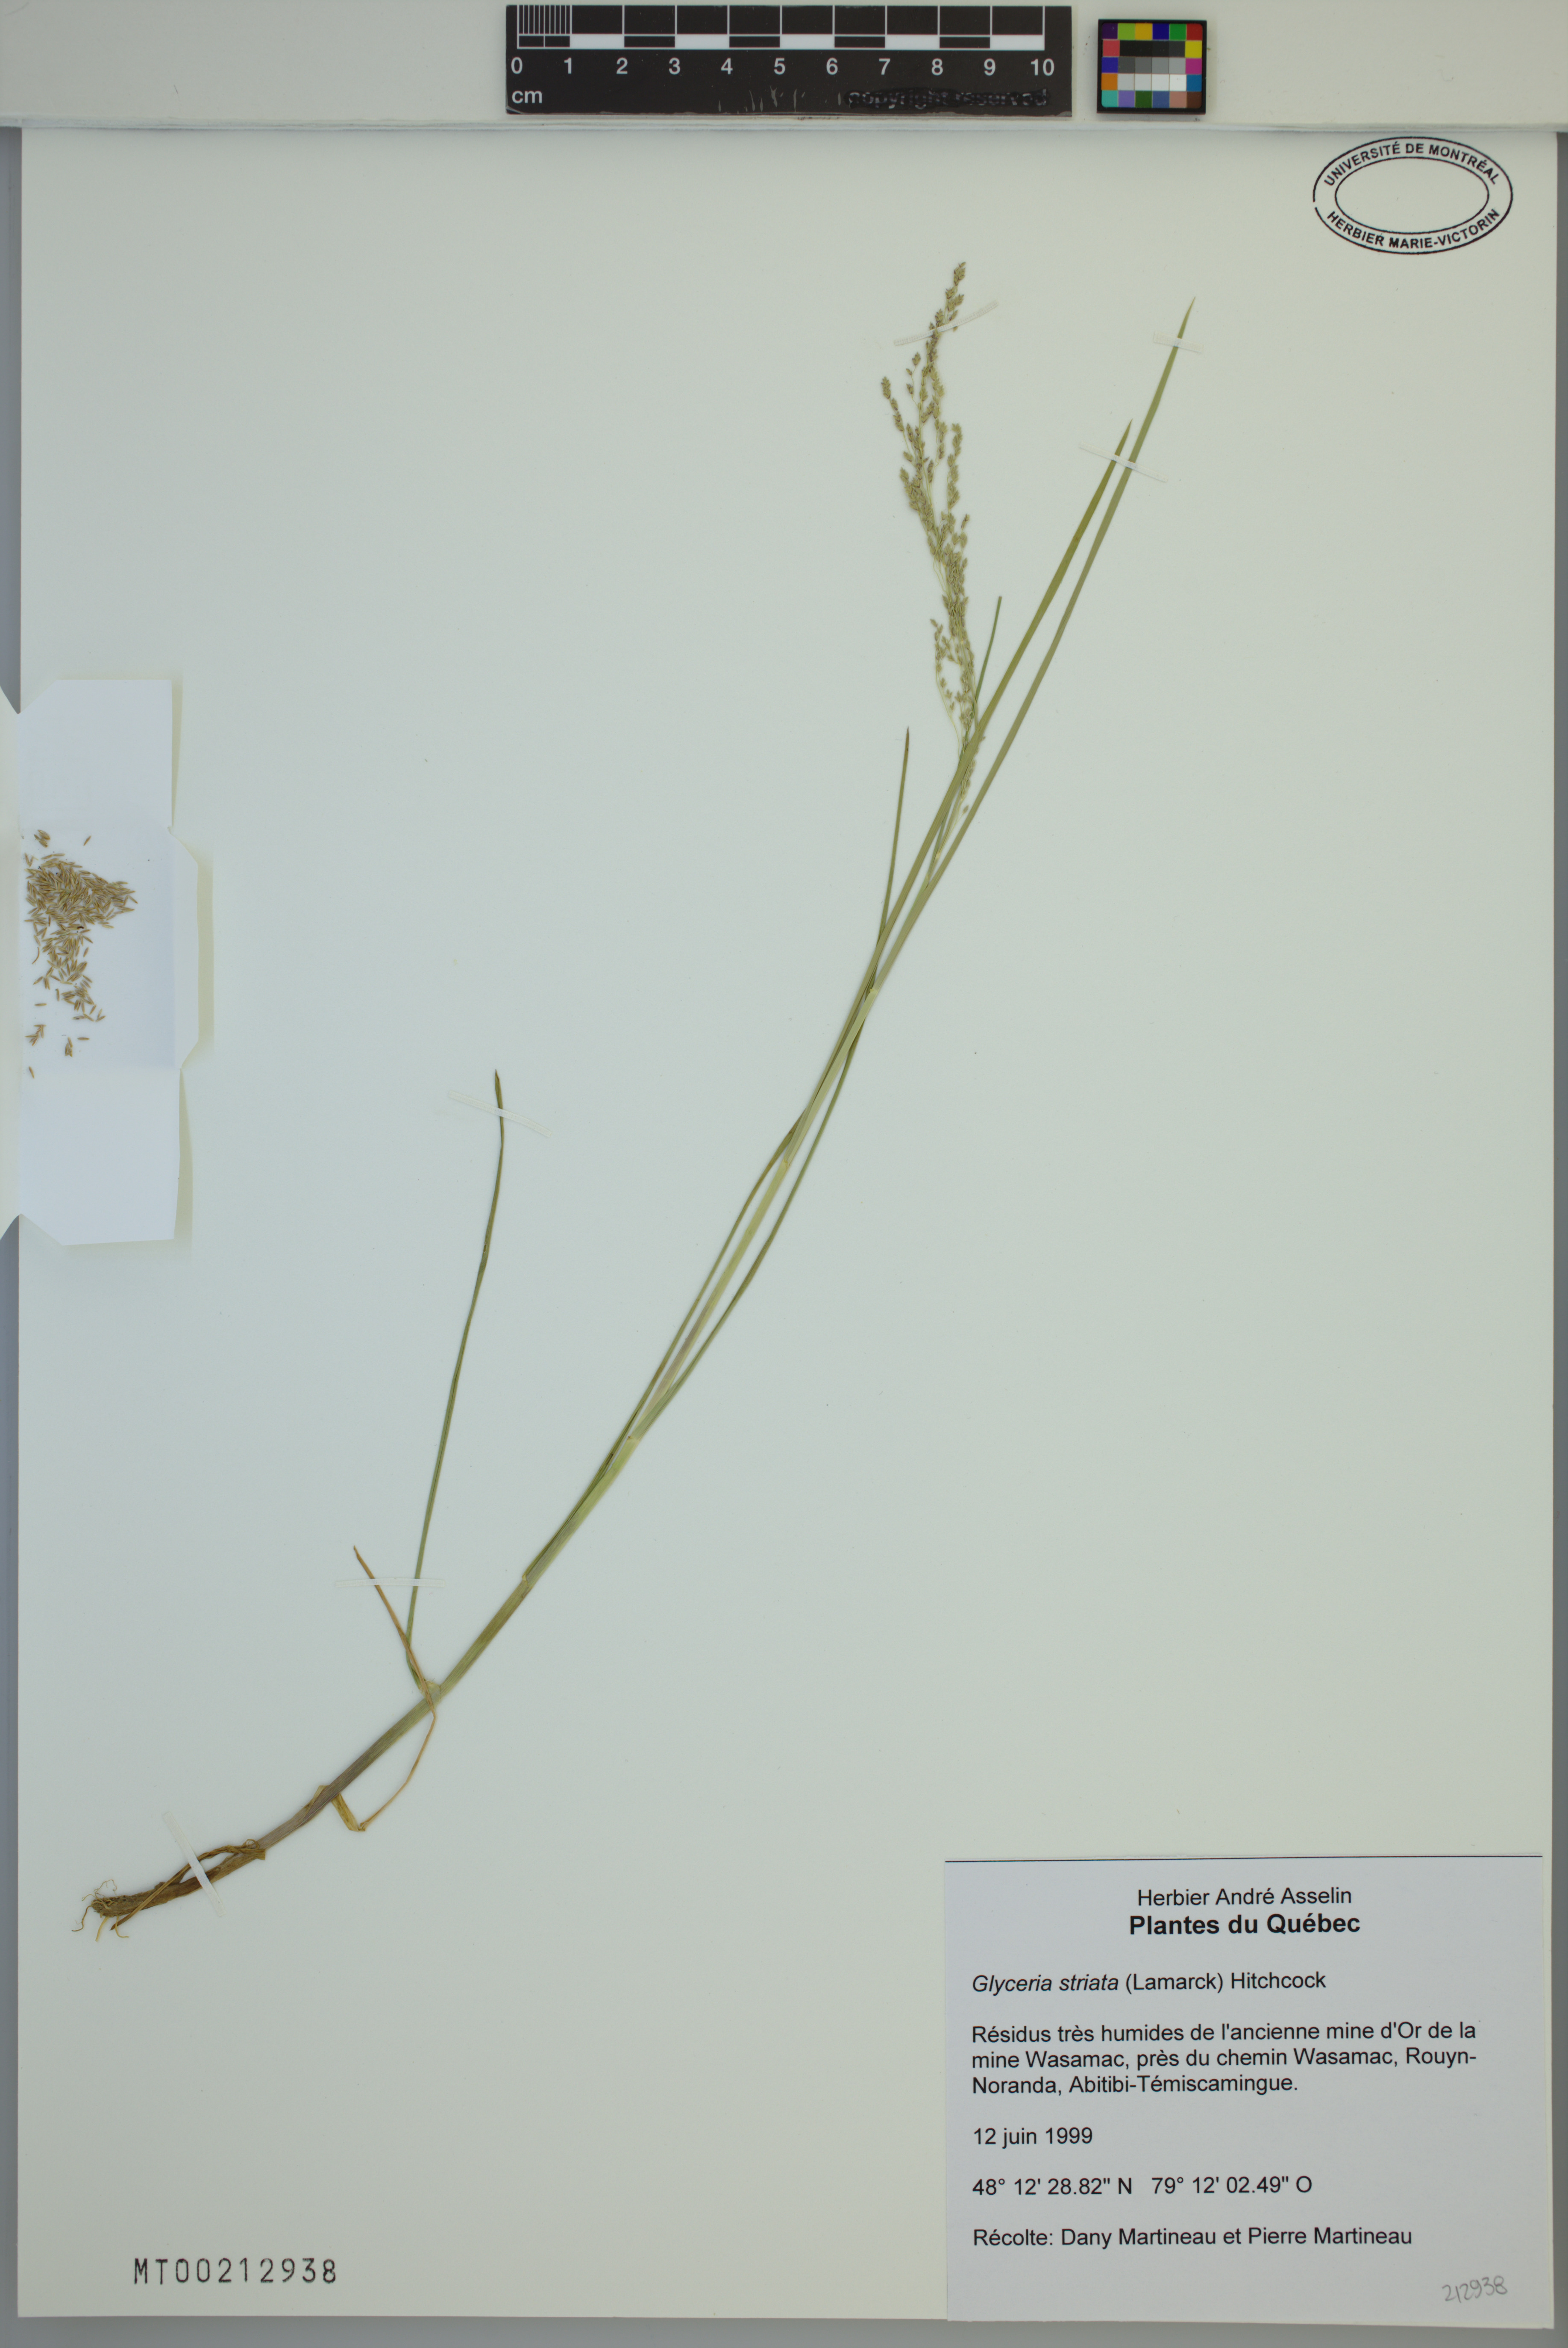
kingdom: Plantae
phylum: Tracheophyta
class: Liliopsida
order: Poales
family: Poaceae
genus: Glyceria
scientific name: Glyceria striata
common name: Fowl manna grass
